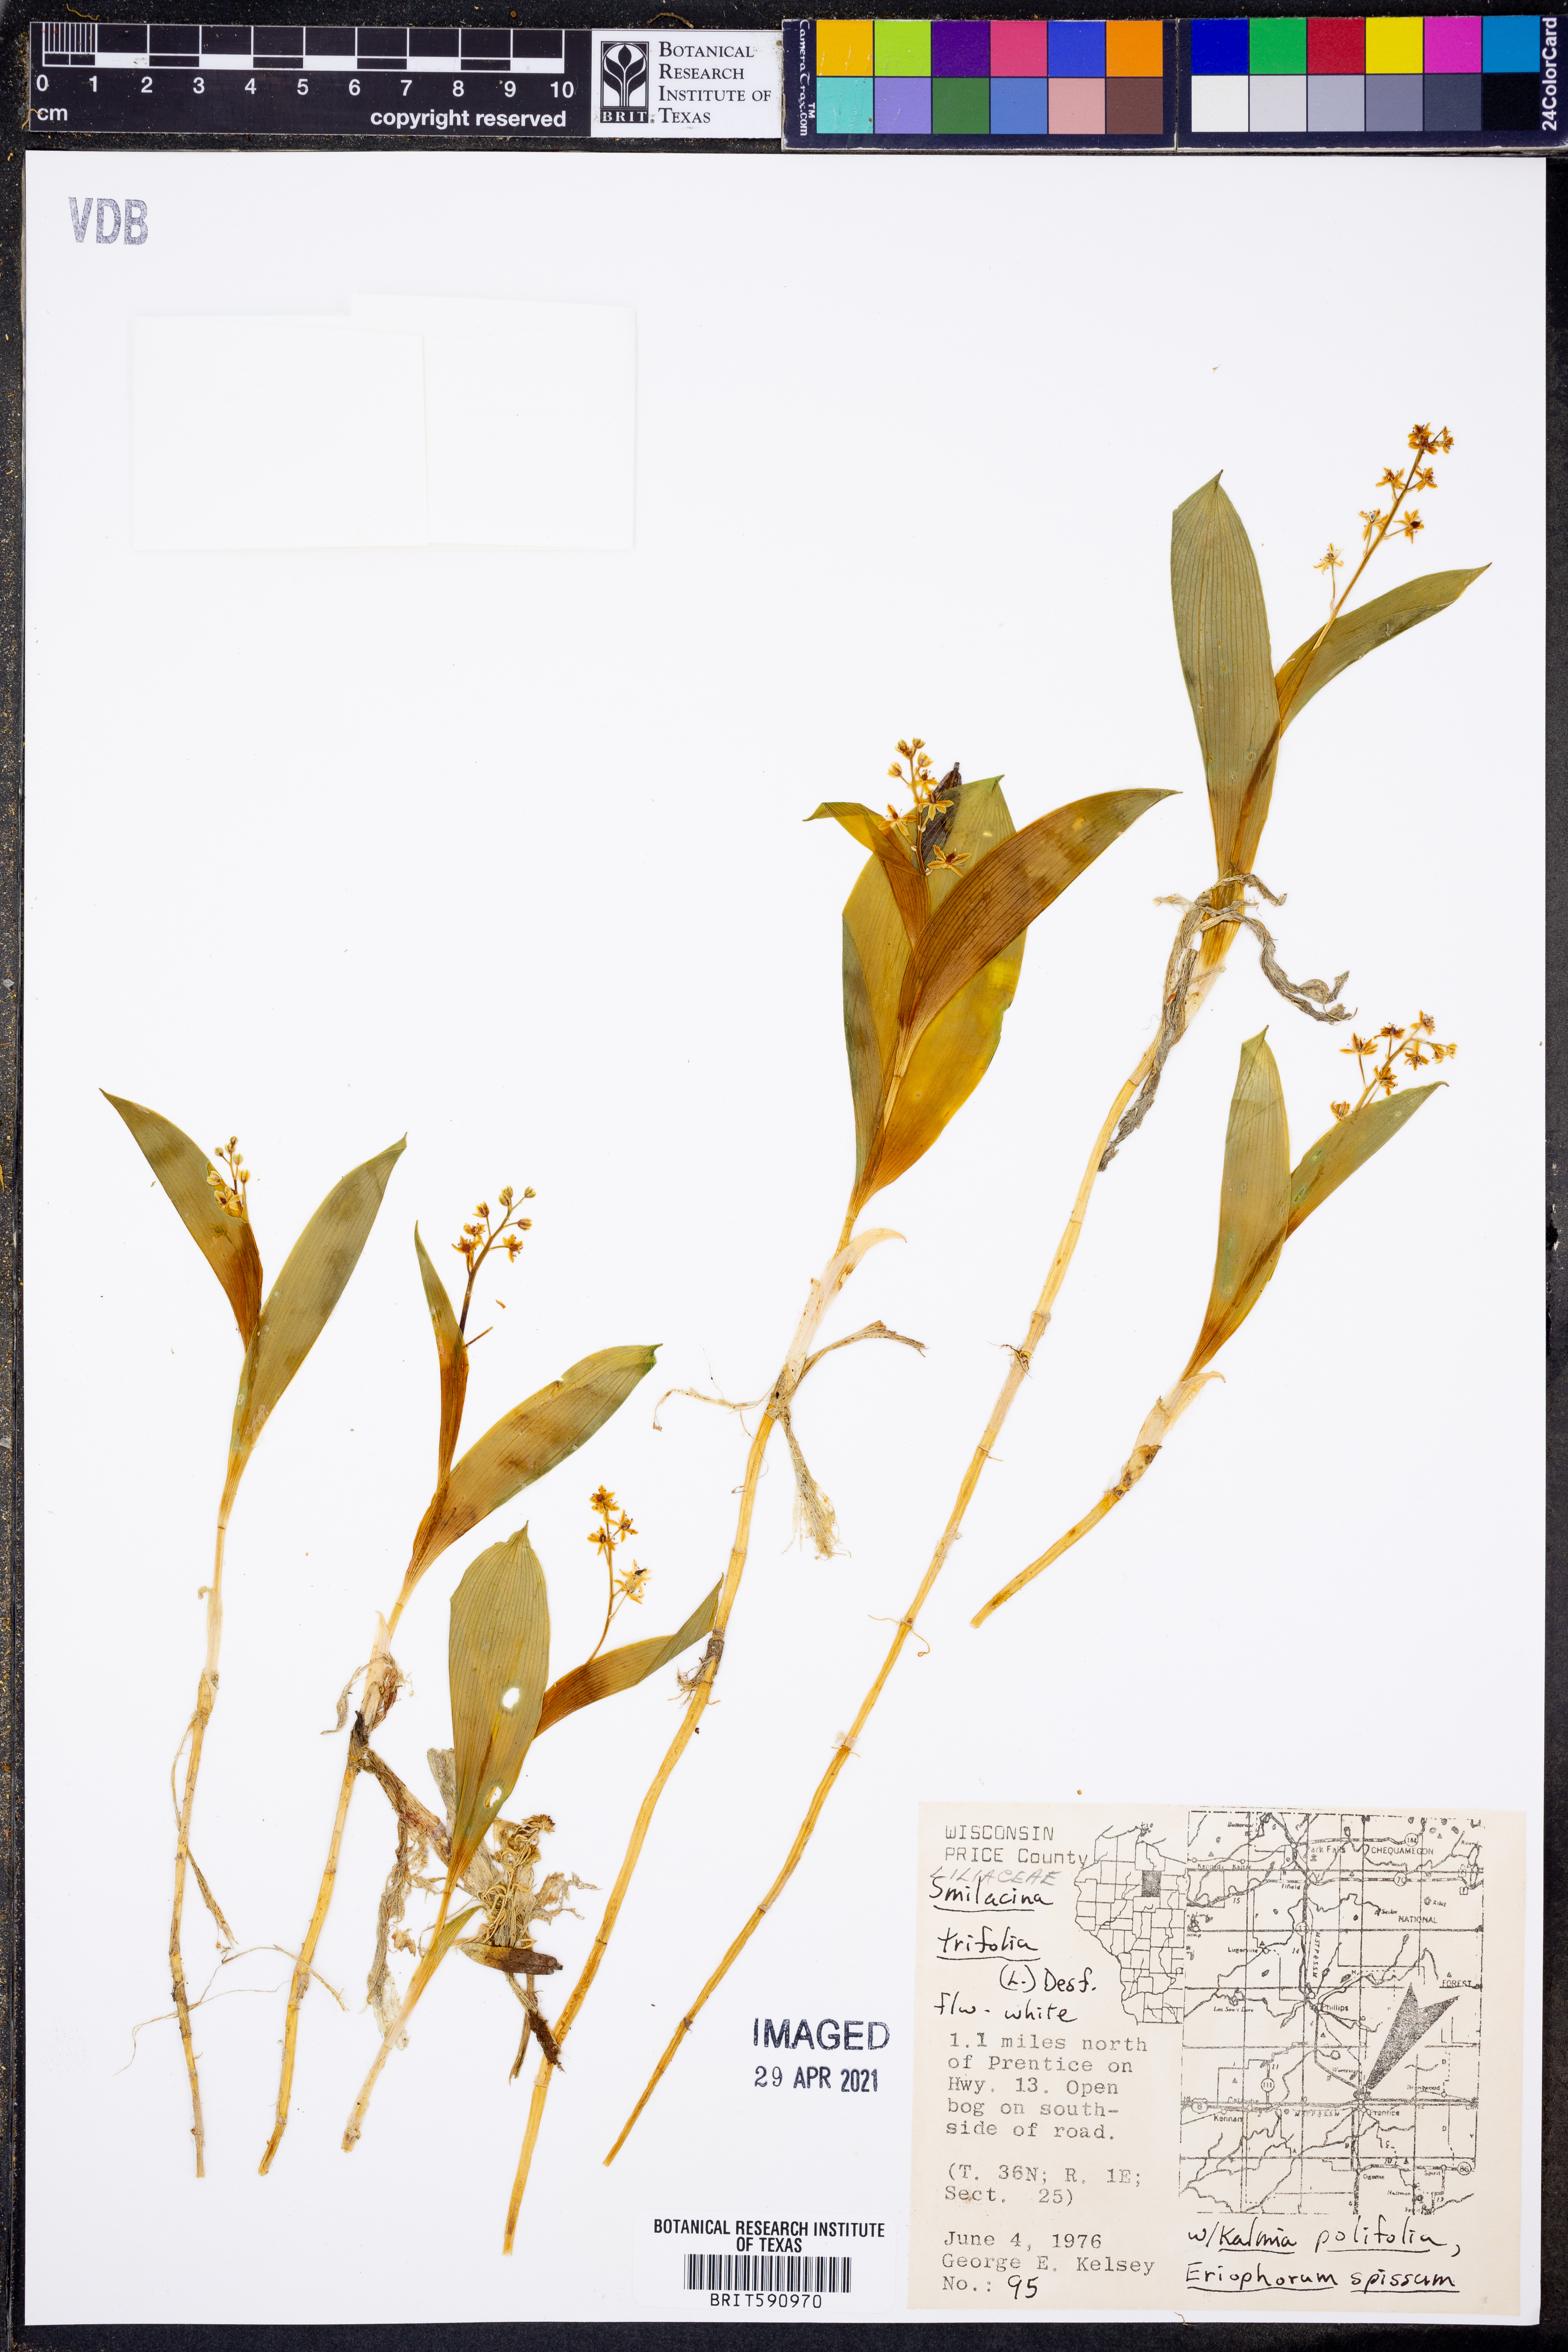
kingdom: Plantae
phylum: Tracheophyta
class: Liliopsida
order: Asparagales
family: Asparagaceae
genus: Maianthemum
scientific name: Maianthemum trifolium
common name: Swamp false solomon's seal
